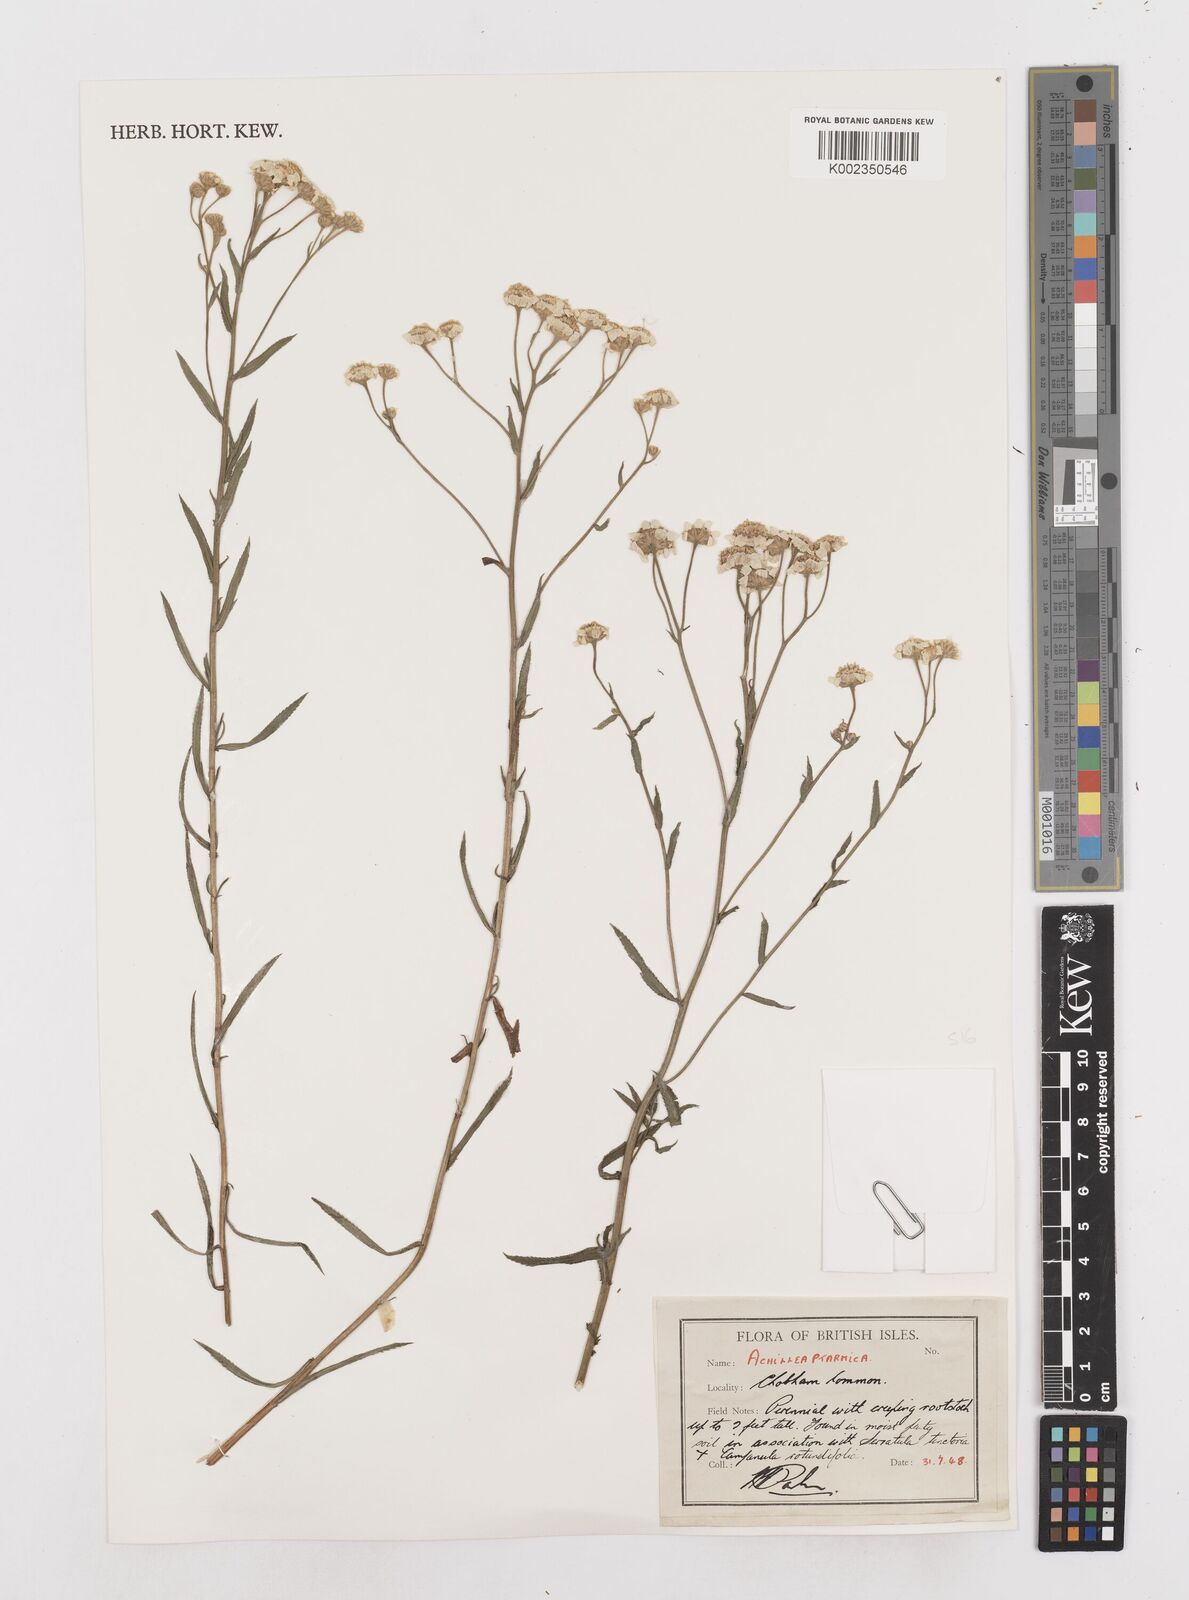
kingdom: Plantae
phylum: Tracheophyta
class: Magnoliopsida
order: Asterales
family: Asteraceae
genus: Achillea
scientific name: Achillea ptarmica
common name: Sneezeweed
